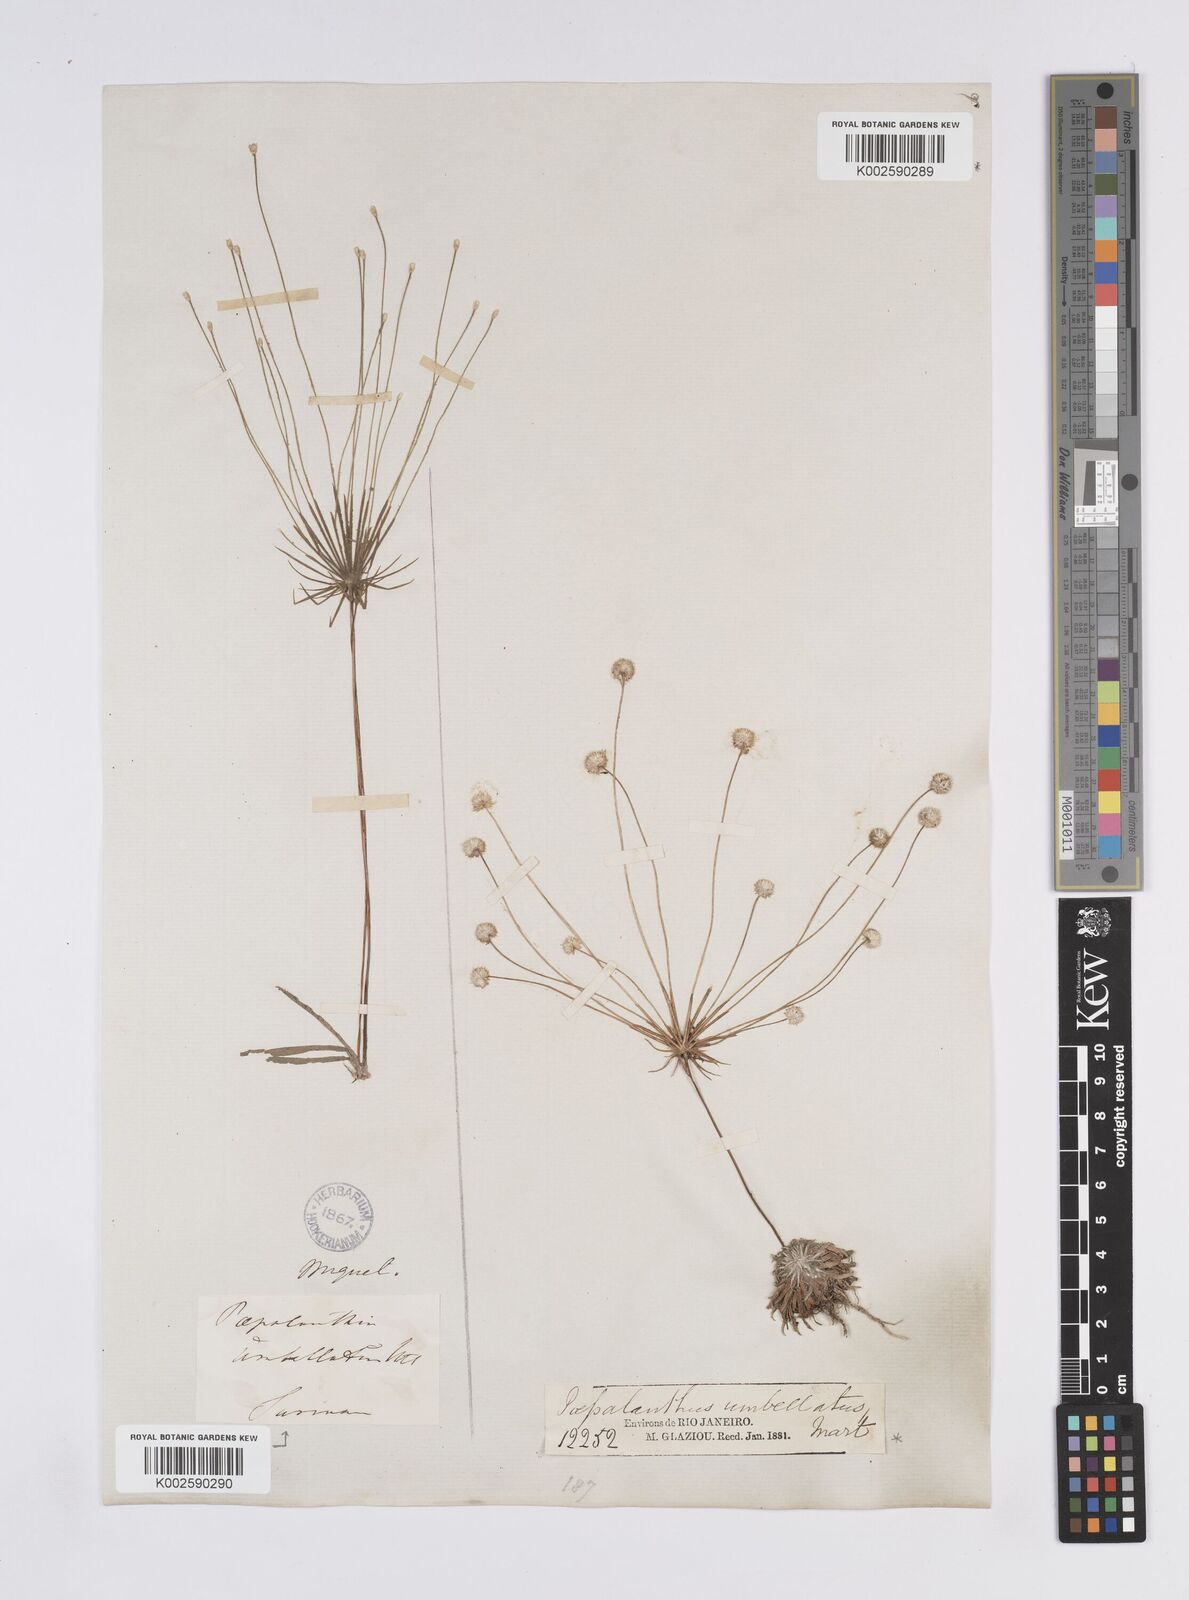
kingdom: Plantae
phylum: Tracheophyta
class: Liliopsida
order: Poales
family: Eriocaulaceae
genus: Syngonanthus
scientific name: Syngonanthus umbellatus
